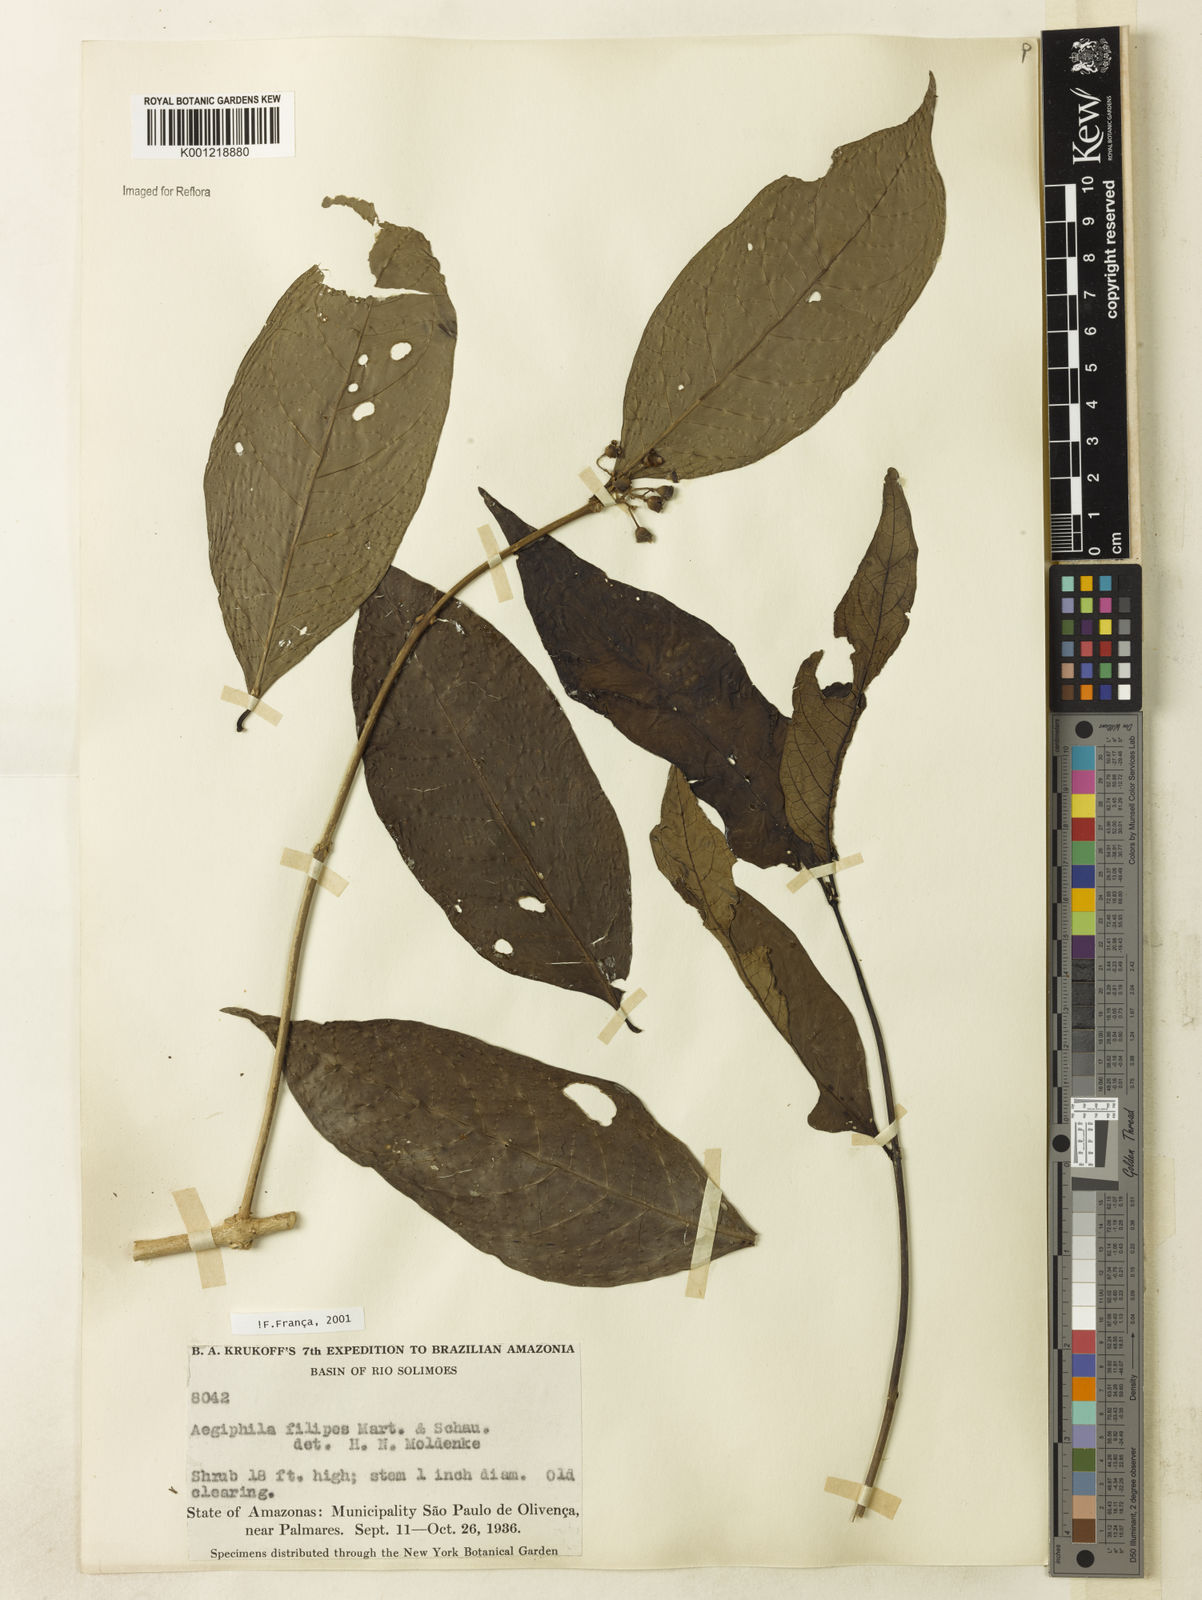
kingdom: Plantae
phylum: Tracheophyta
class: Magnoliopsida
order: Lamiales
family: Lamiaceae
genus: Aegiphila
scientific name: Aegiphila filipes
